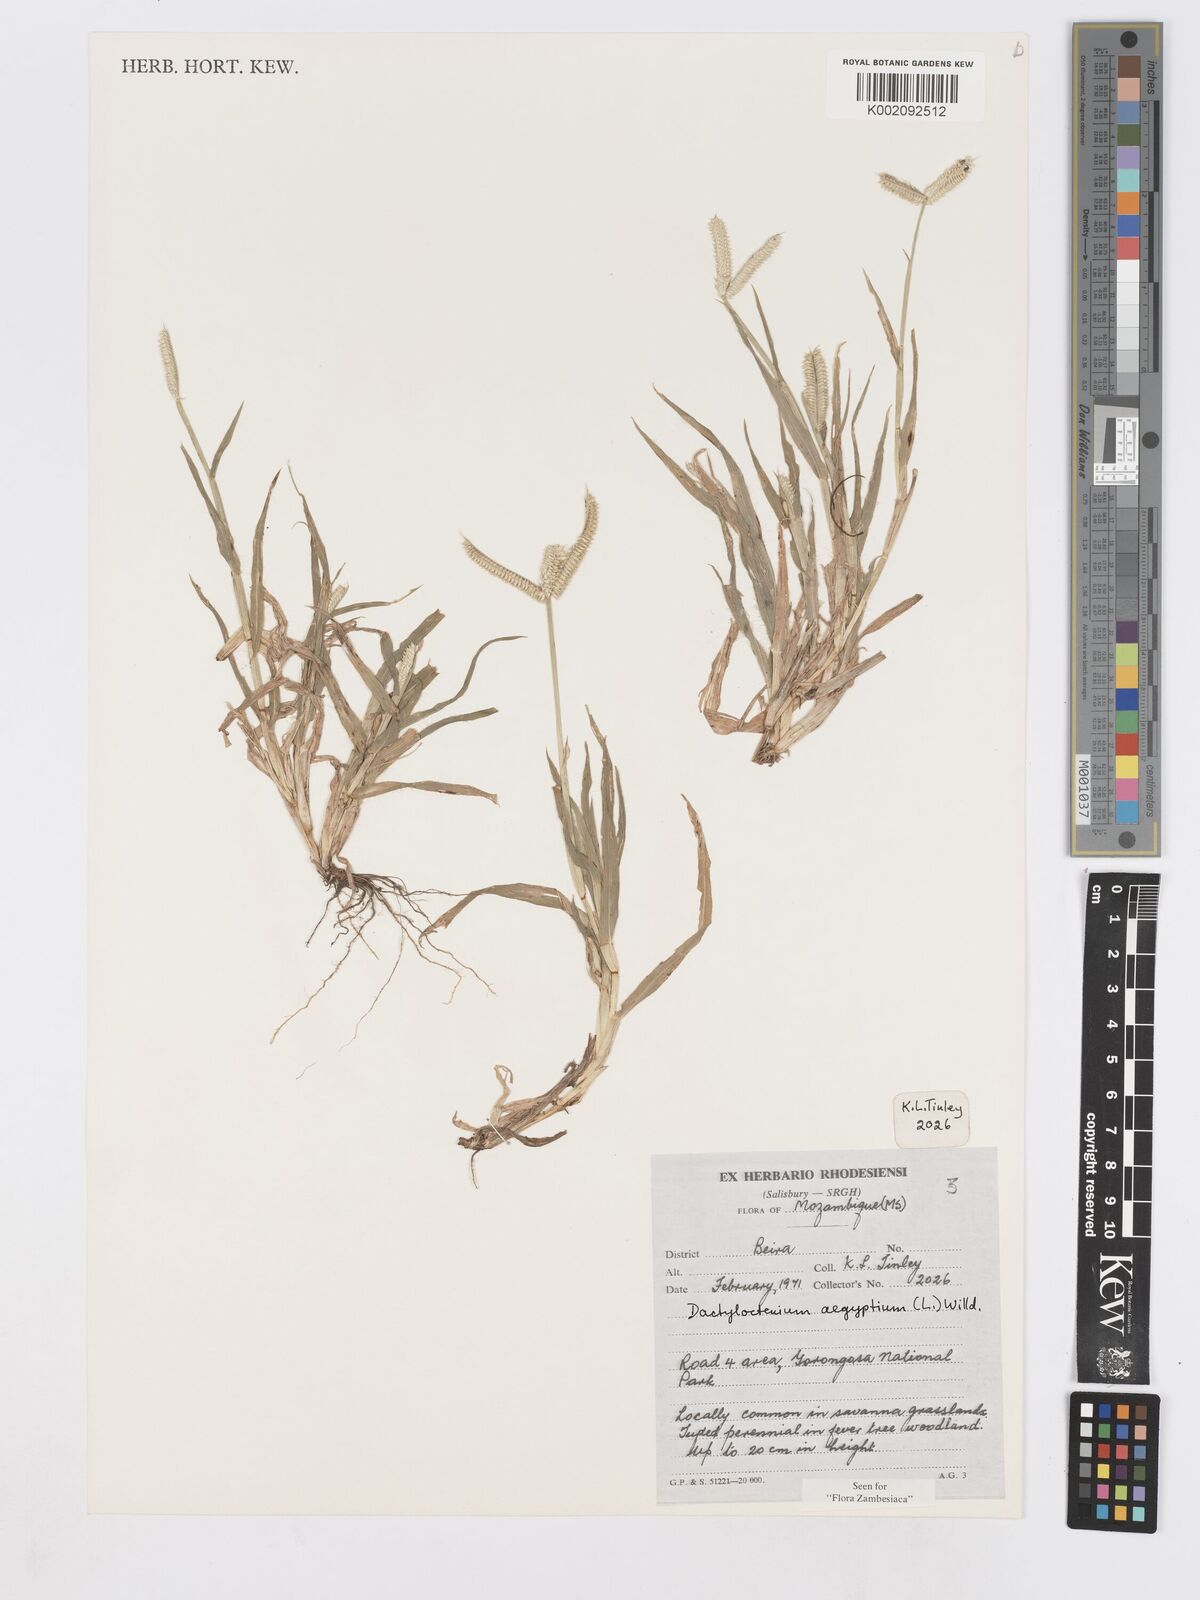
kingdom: Plantae
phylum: Tracheophyta
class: Liliopsida
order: Poales
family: Poaceae
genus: Dactyloctenium
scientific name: Dactyloctenium aegyptium
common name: Egyptian grass
